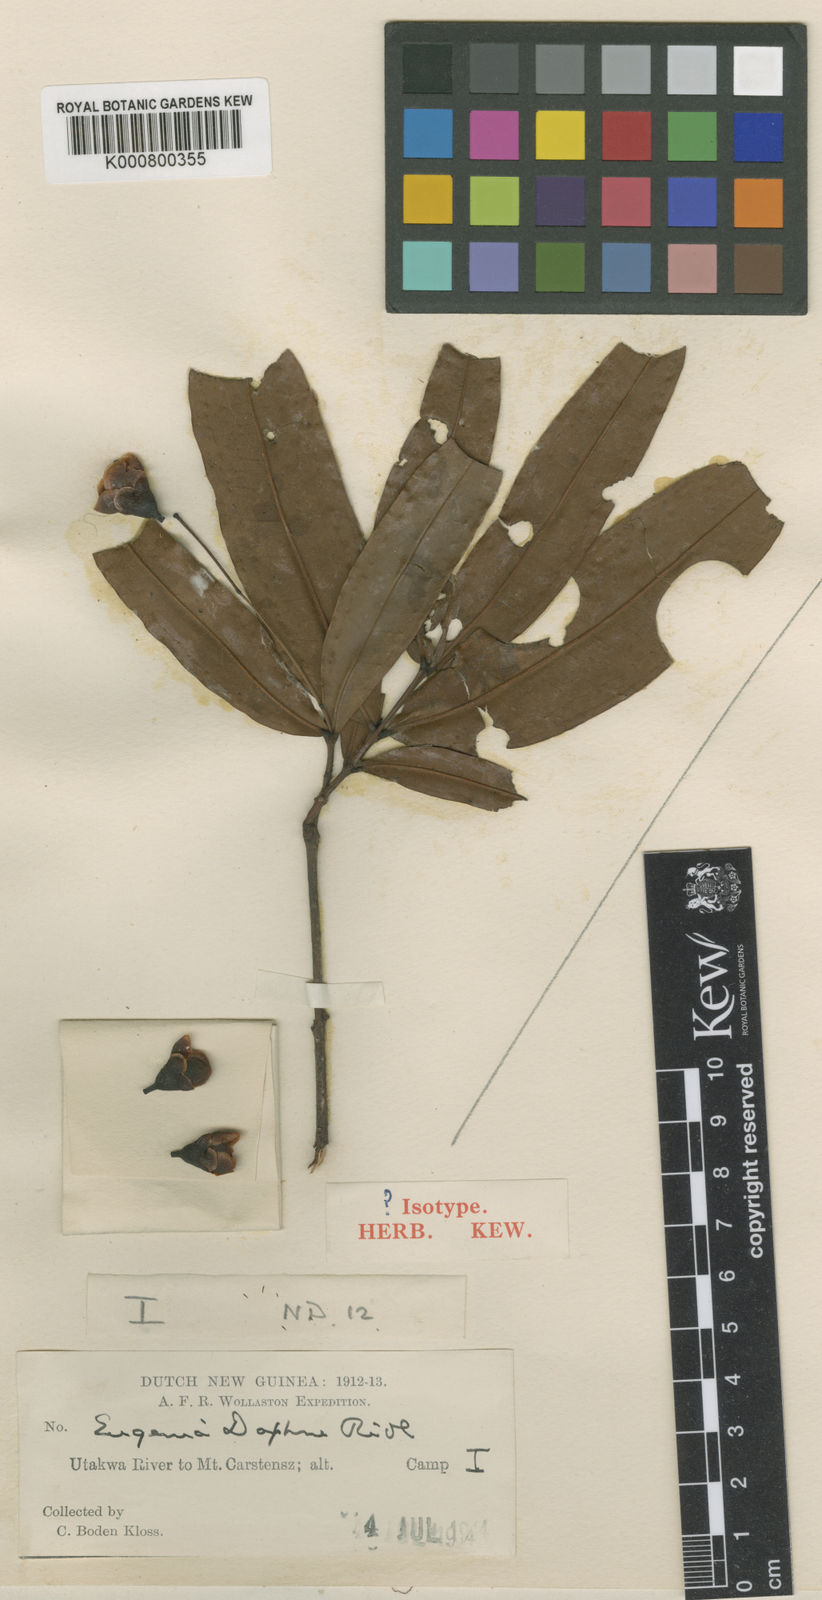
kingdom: Plantae
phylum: Tracheophyta
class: Magnoliopsida
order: Myrtales
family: Myrtaceae
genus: Syzygium
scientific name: Syzygium daphne
